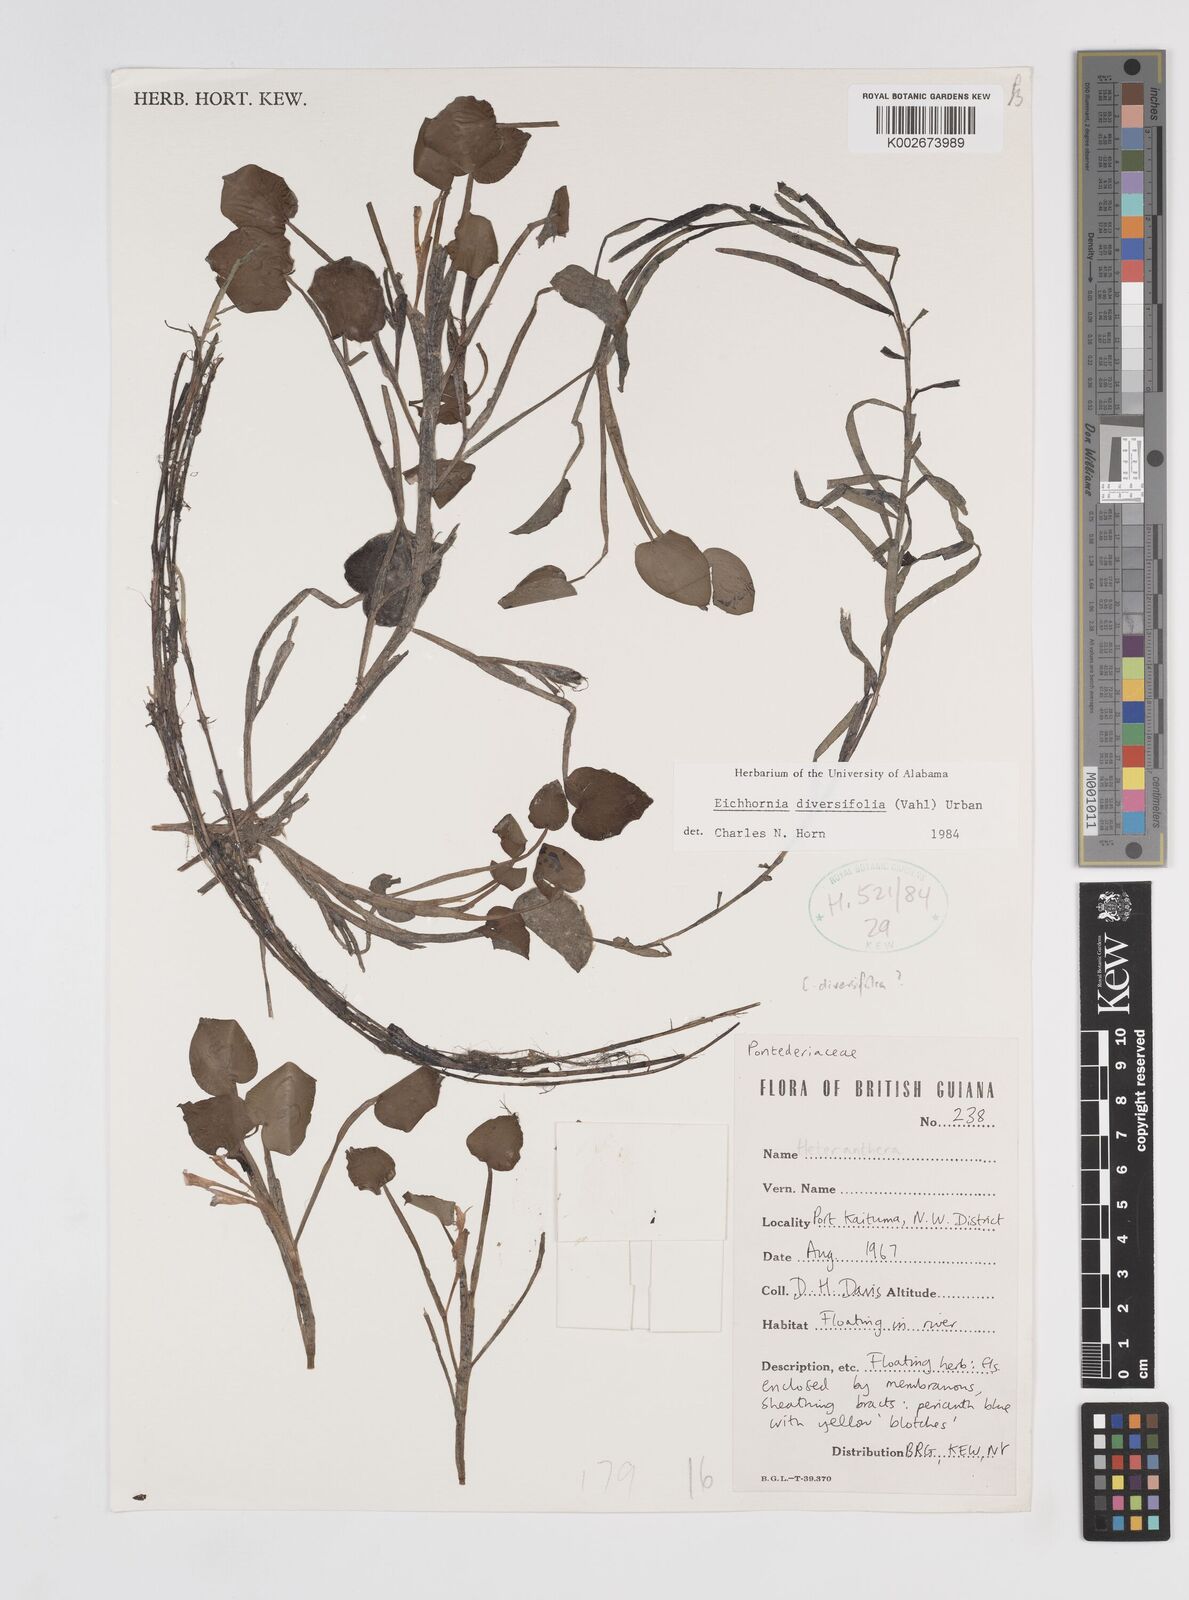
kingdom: Plantae
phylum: Tracheophyta
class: Liliopsida
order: Commelinales
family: Pontederiaceae
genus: Pontederia
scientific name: Pontederia diversifolia
